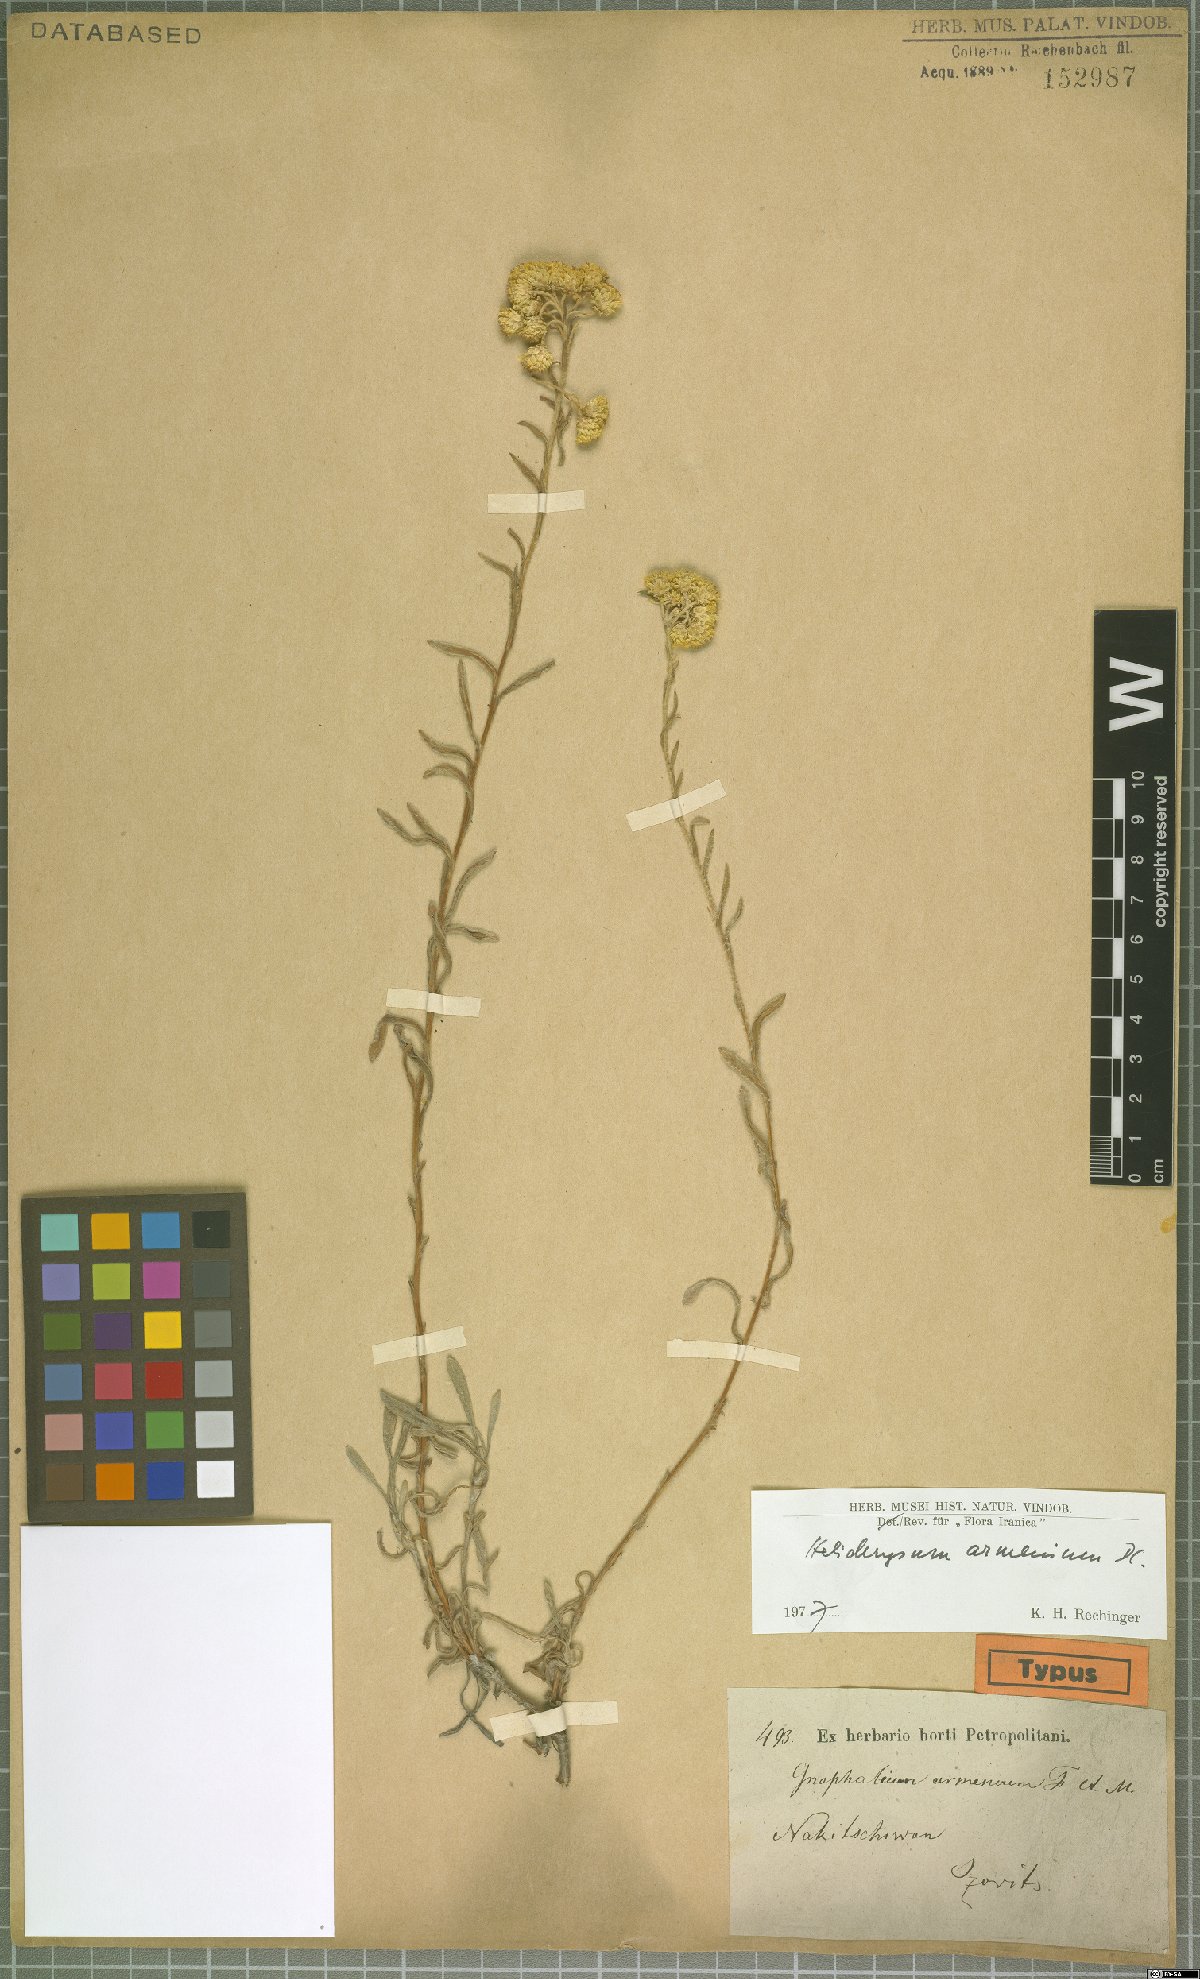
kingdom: Plantae
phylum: Tracheophyta
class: Magnoliopsida
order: Asterales
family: Asteraceae
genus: Helichrysum
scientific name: Helichrysum armenium
